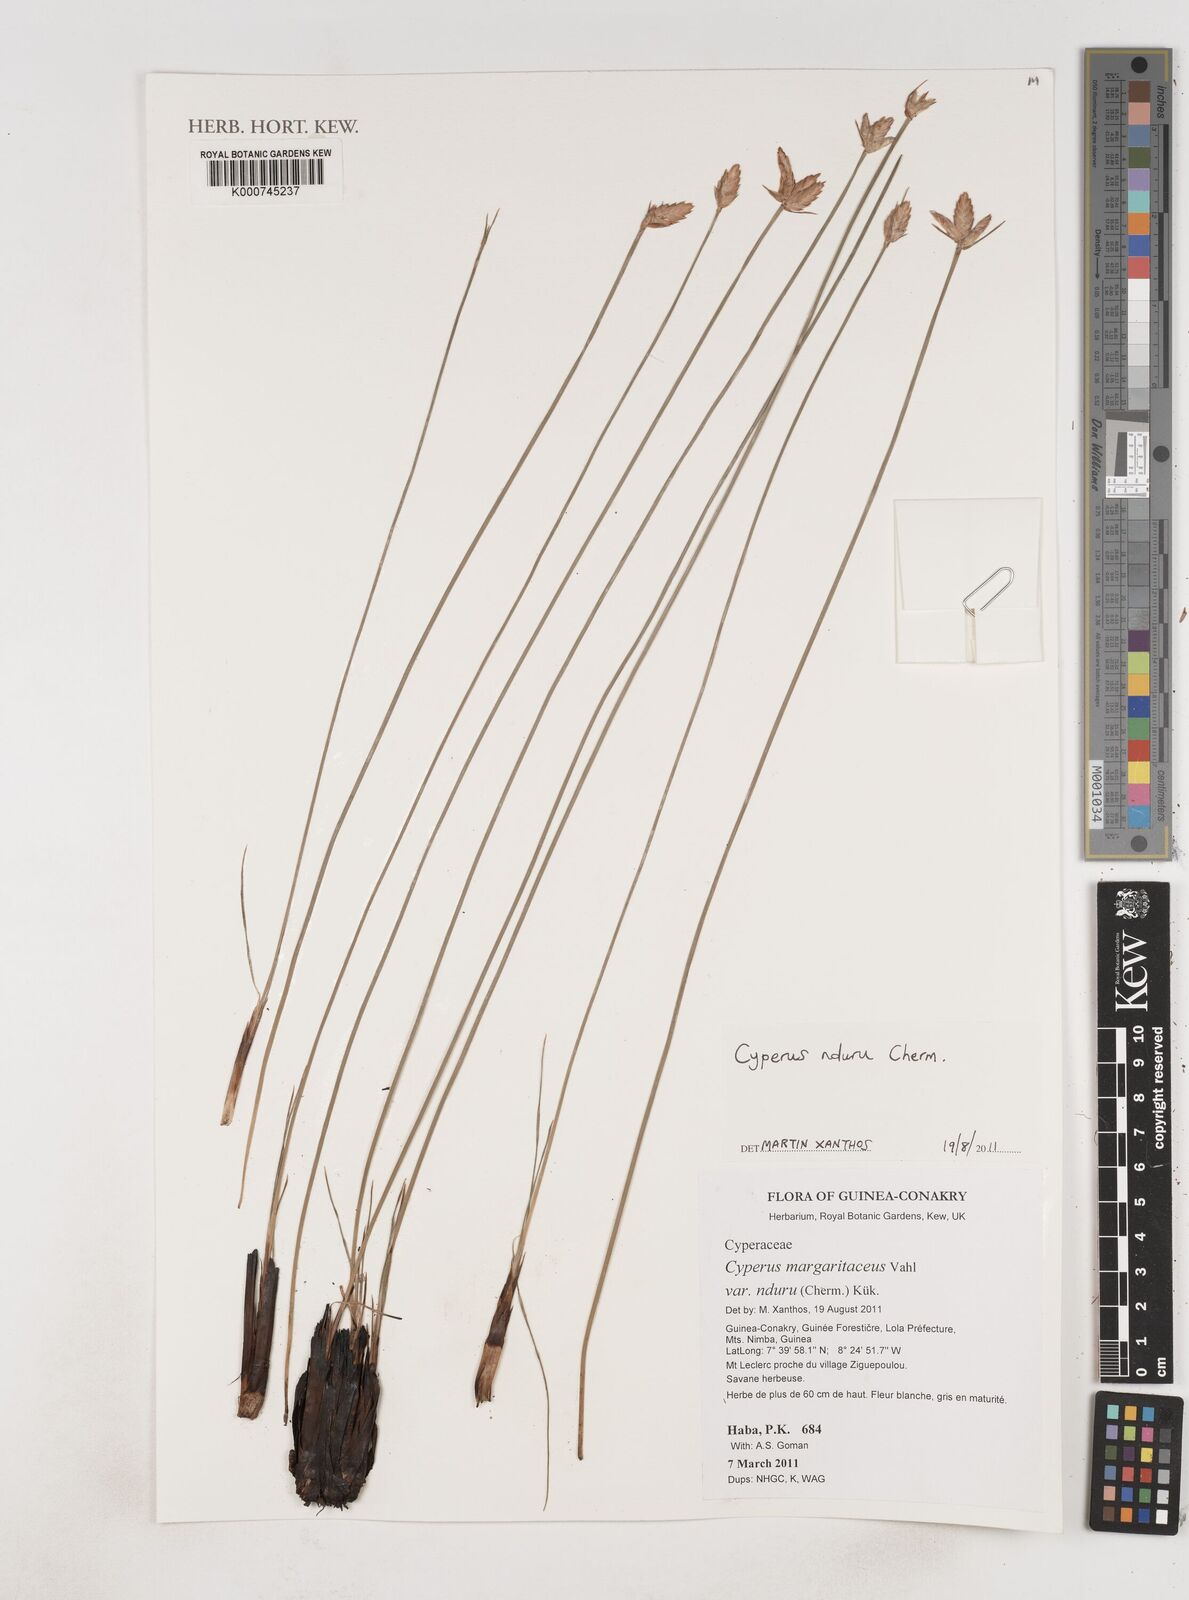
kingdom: Plantae
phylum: Tracheophyta
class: Liliopsida
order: Poales
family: Cyperaceae
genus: Cyperus
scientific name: Cyperus nduru
